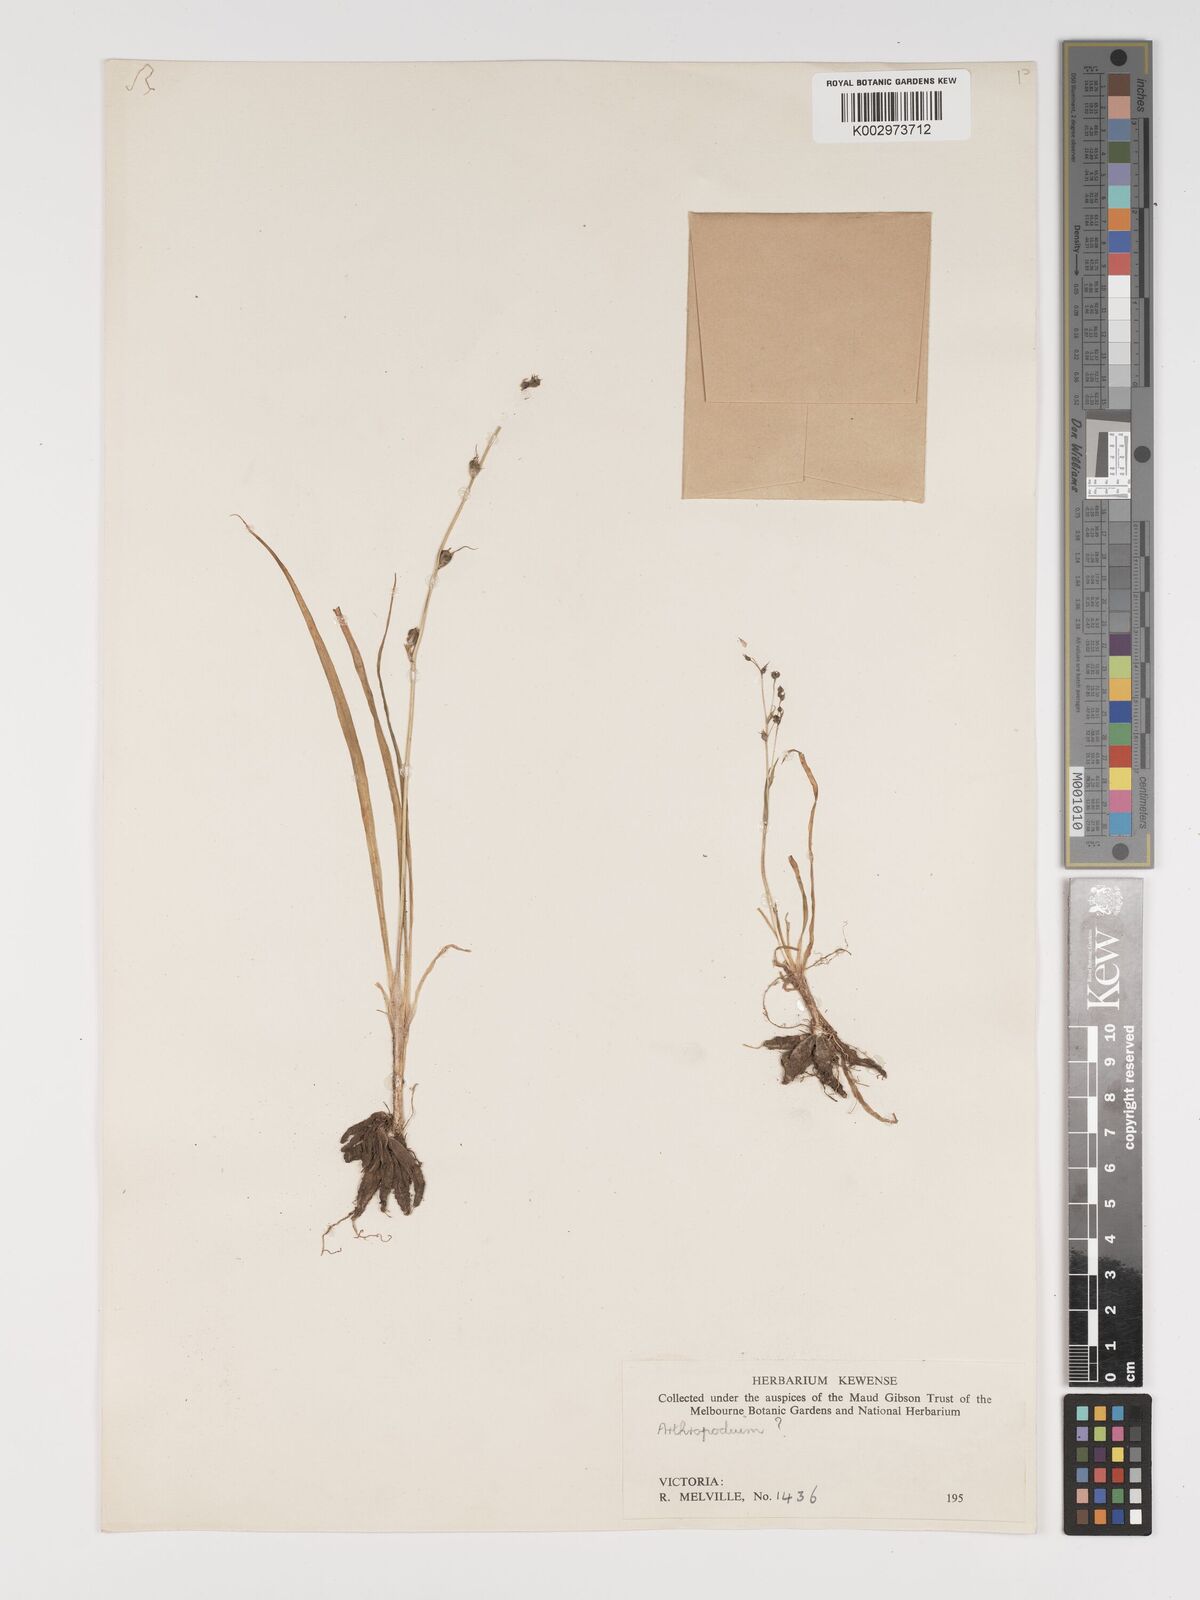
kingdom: Plantae
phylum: Tracheophyta
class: Liliopsida
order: Asparagales
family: Asparagaceae
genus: Arthropodium
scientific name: Arthropodium
